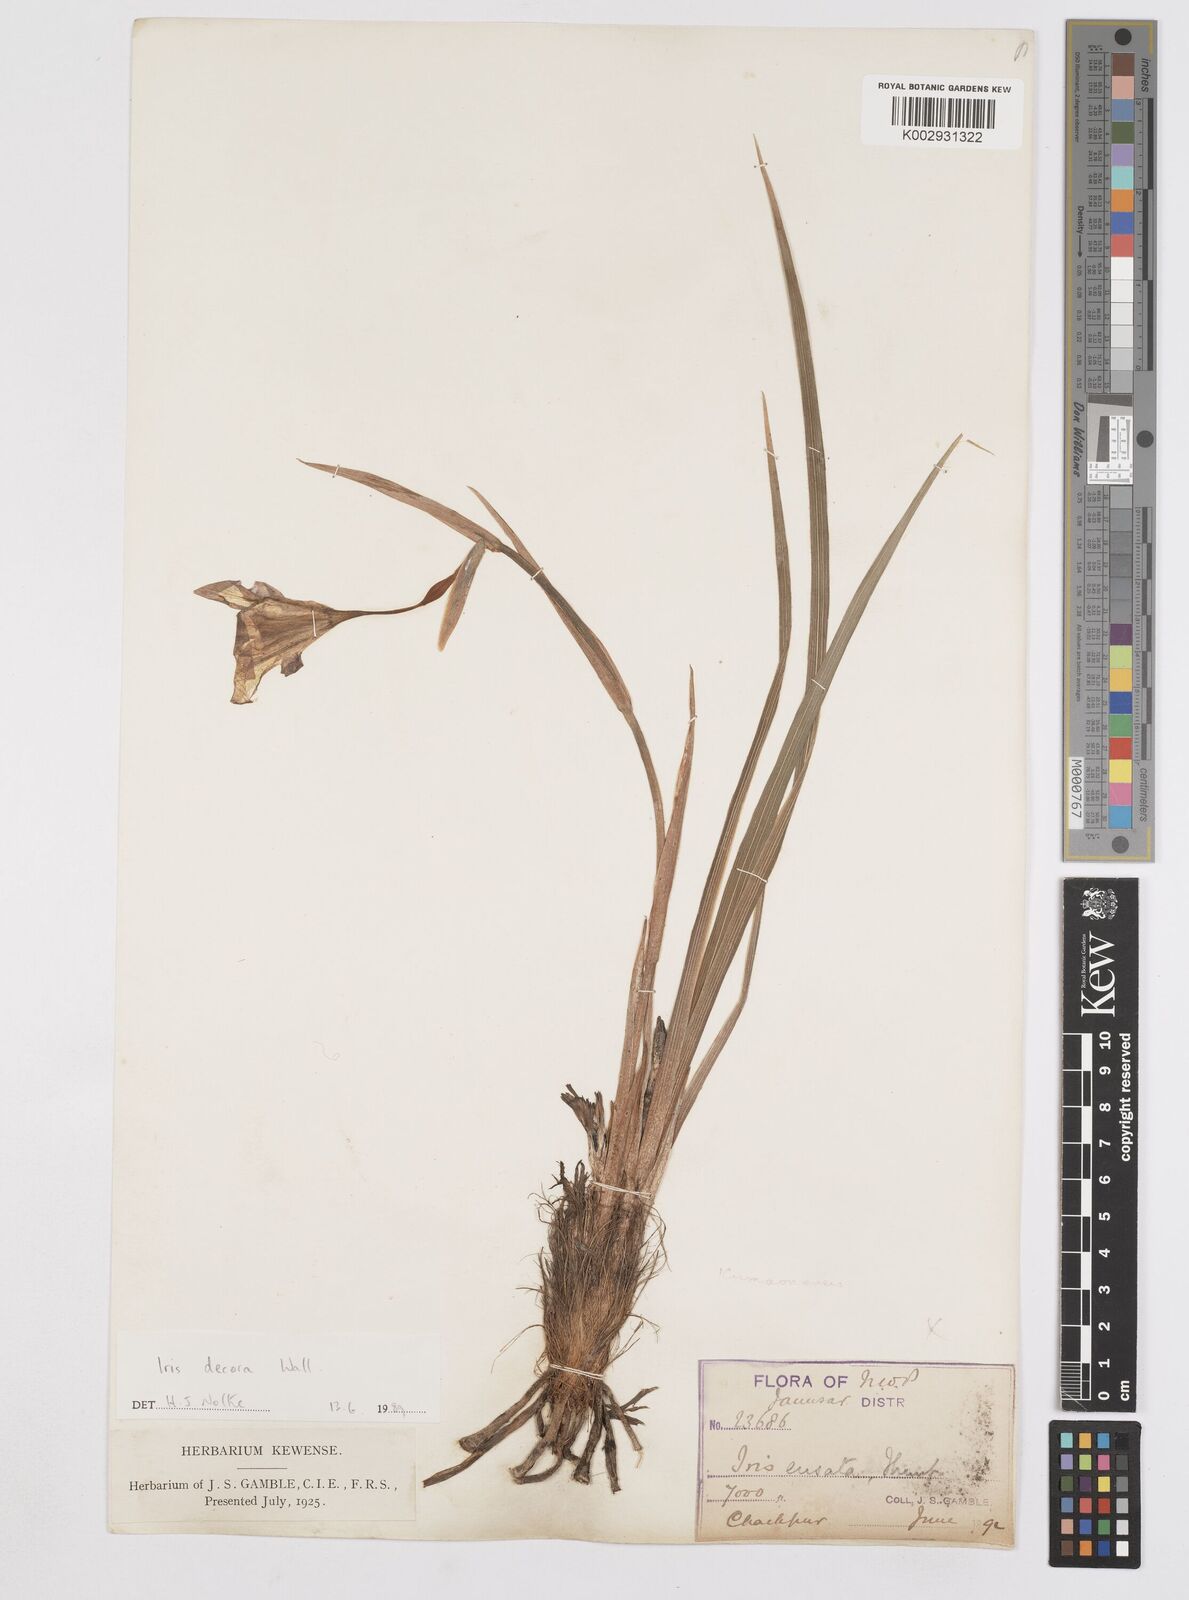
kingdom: Plantae
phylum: Tracheophyta
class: Liliopsida
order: Asparagales
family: Iridaceae
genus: Iris
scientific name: Iris decora
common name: Nepal iris
